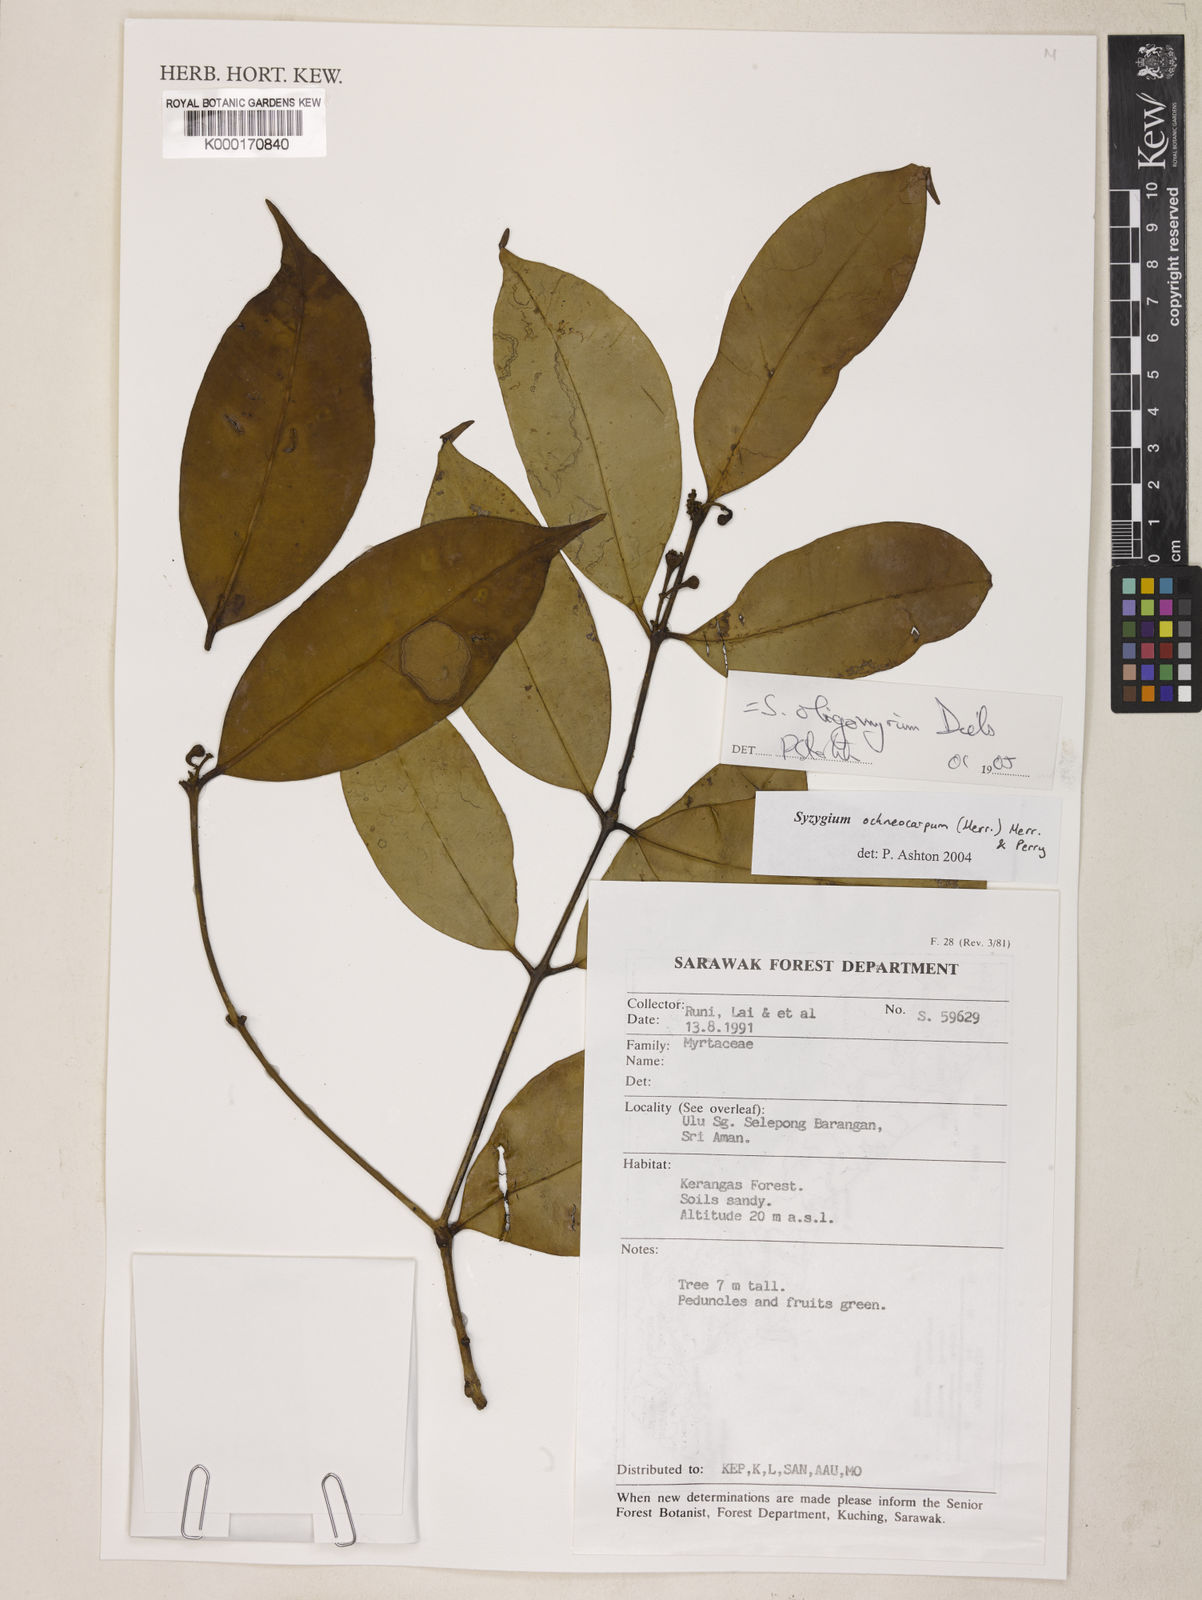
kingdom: Plantae
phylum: Tracheophyta
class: Magnoliopsida
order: Myrtales
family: Myrtaceae
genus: Syzygium
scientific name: Syzygium oligomyrum
